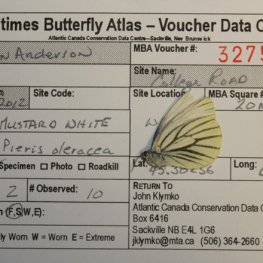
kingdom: Animalia
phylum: Arthropoda
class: Insecta
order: Lepidoptera
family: Pieridae
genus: Pieris
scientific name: Pieris oleracea
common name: Mustard White
